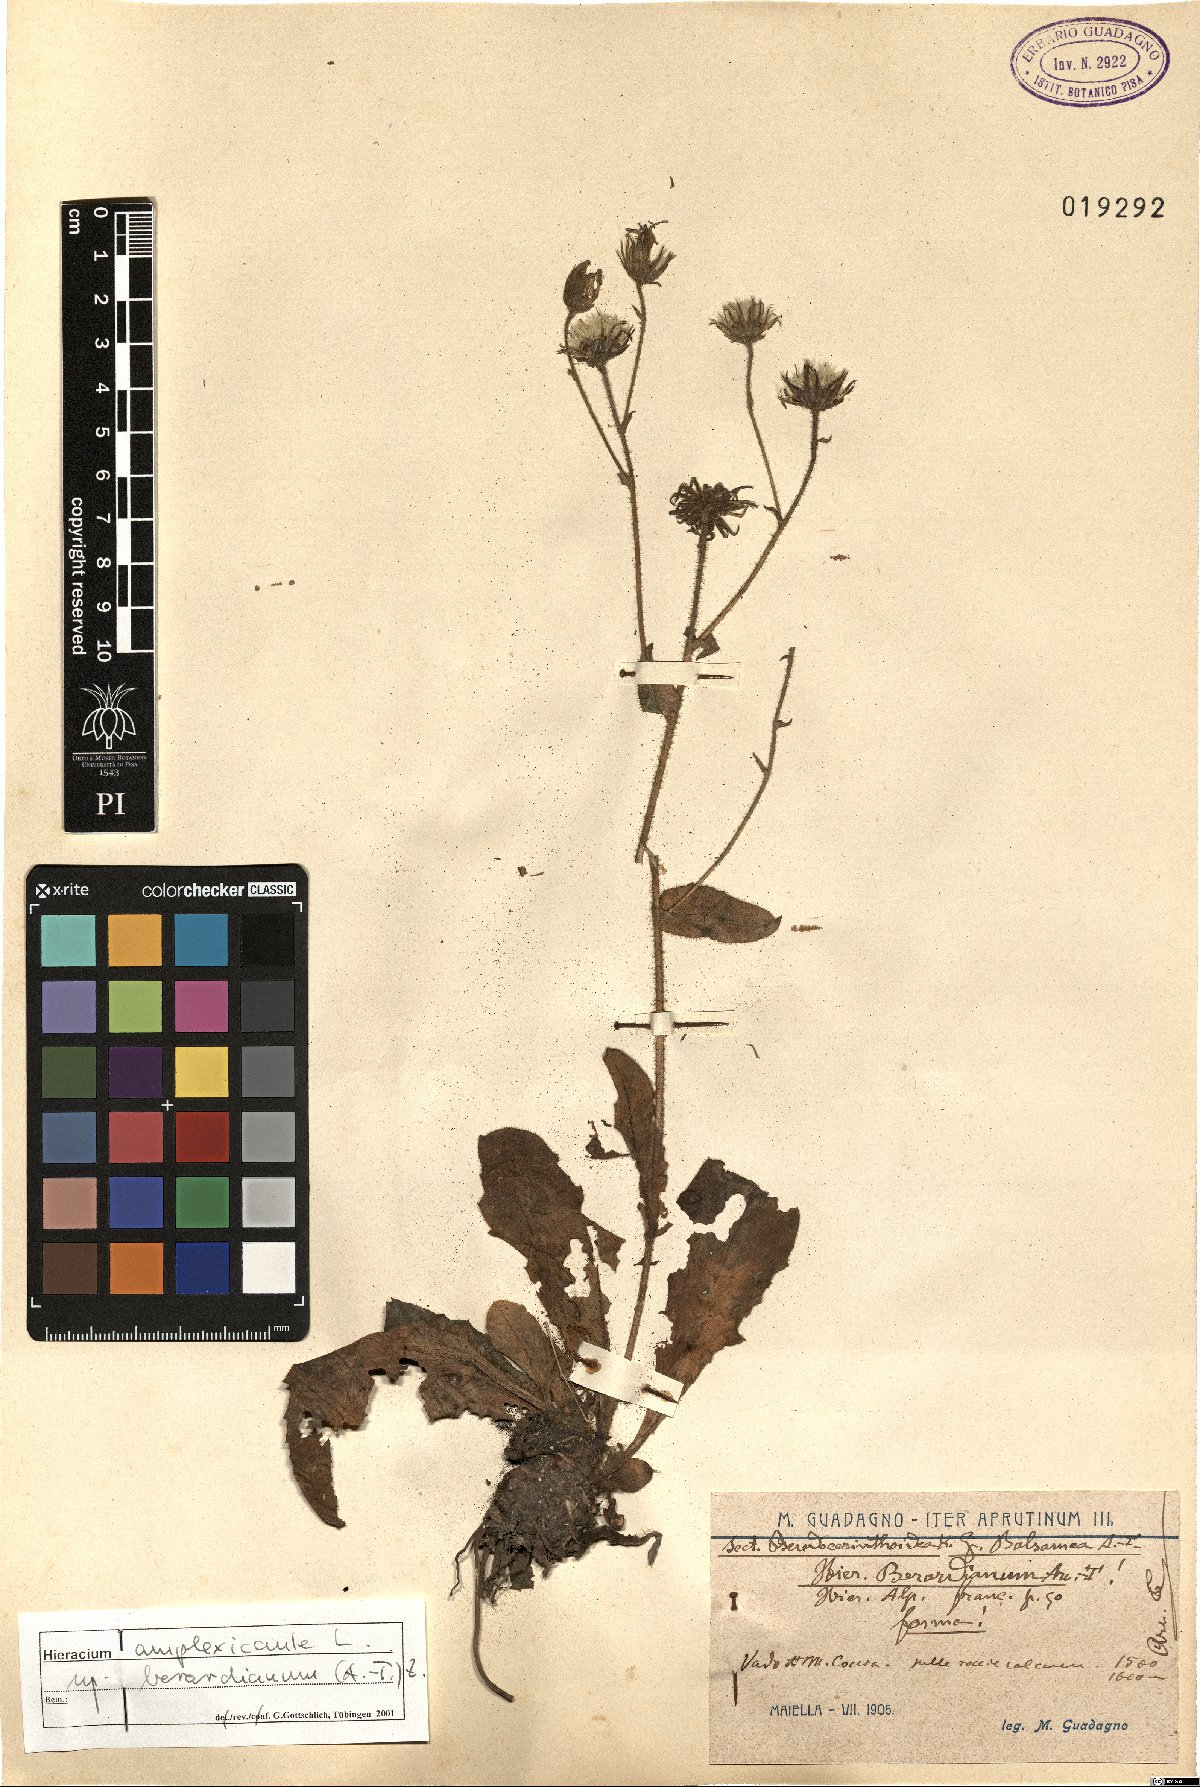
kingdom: Plantae
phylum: Tracheophyta
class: Magnoliopsida
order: Asterales
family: Asteraceae
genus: Hieracium
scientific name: Hieracium amplexicaule
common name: Sticky hawkweed
